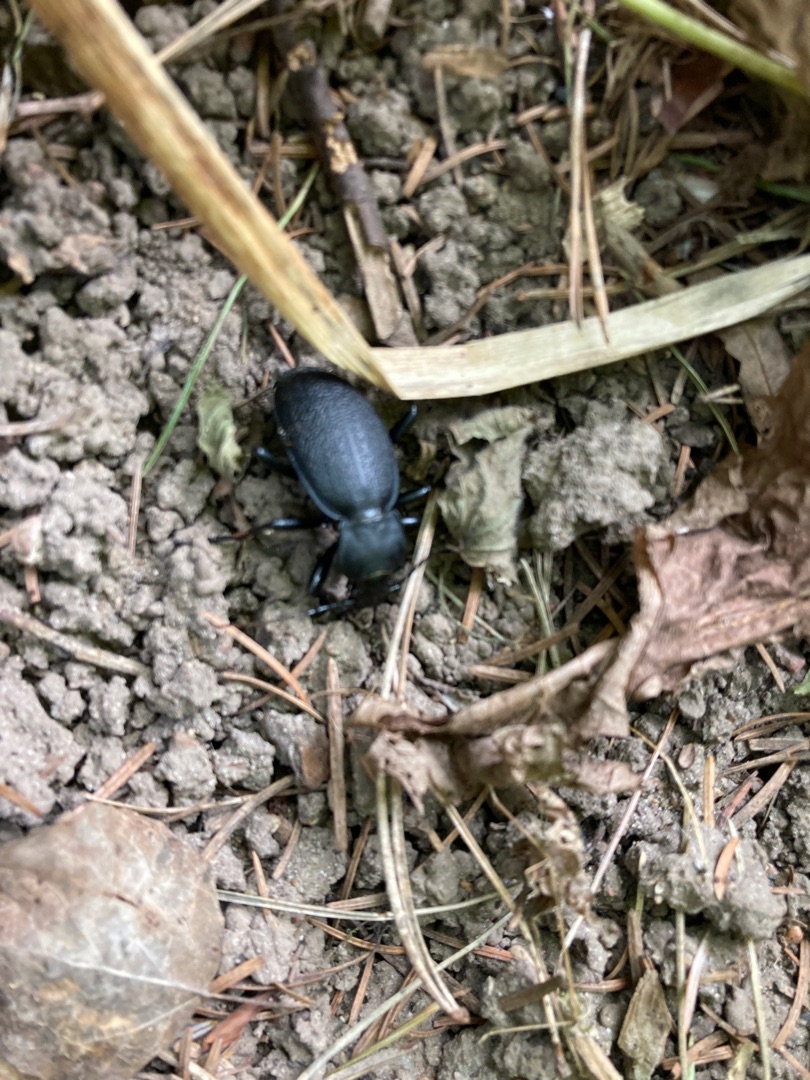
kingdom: Animalia
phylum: Arthropoda
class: Insecta
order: Coleoptera
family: Carabidae
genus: Carabus
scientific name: Carabus coriaceus
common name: Læderløber
